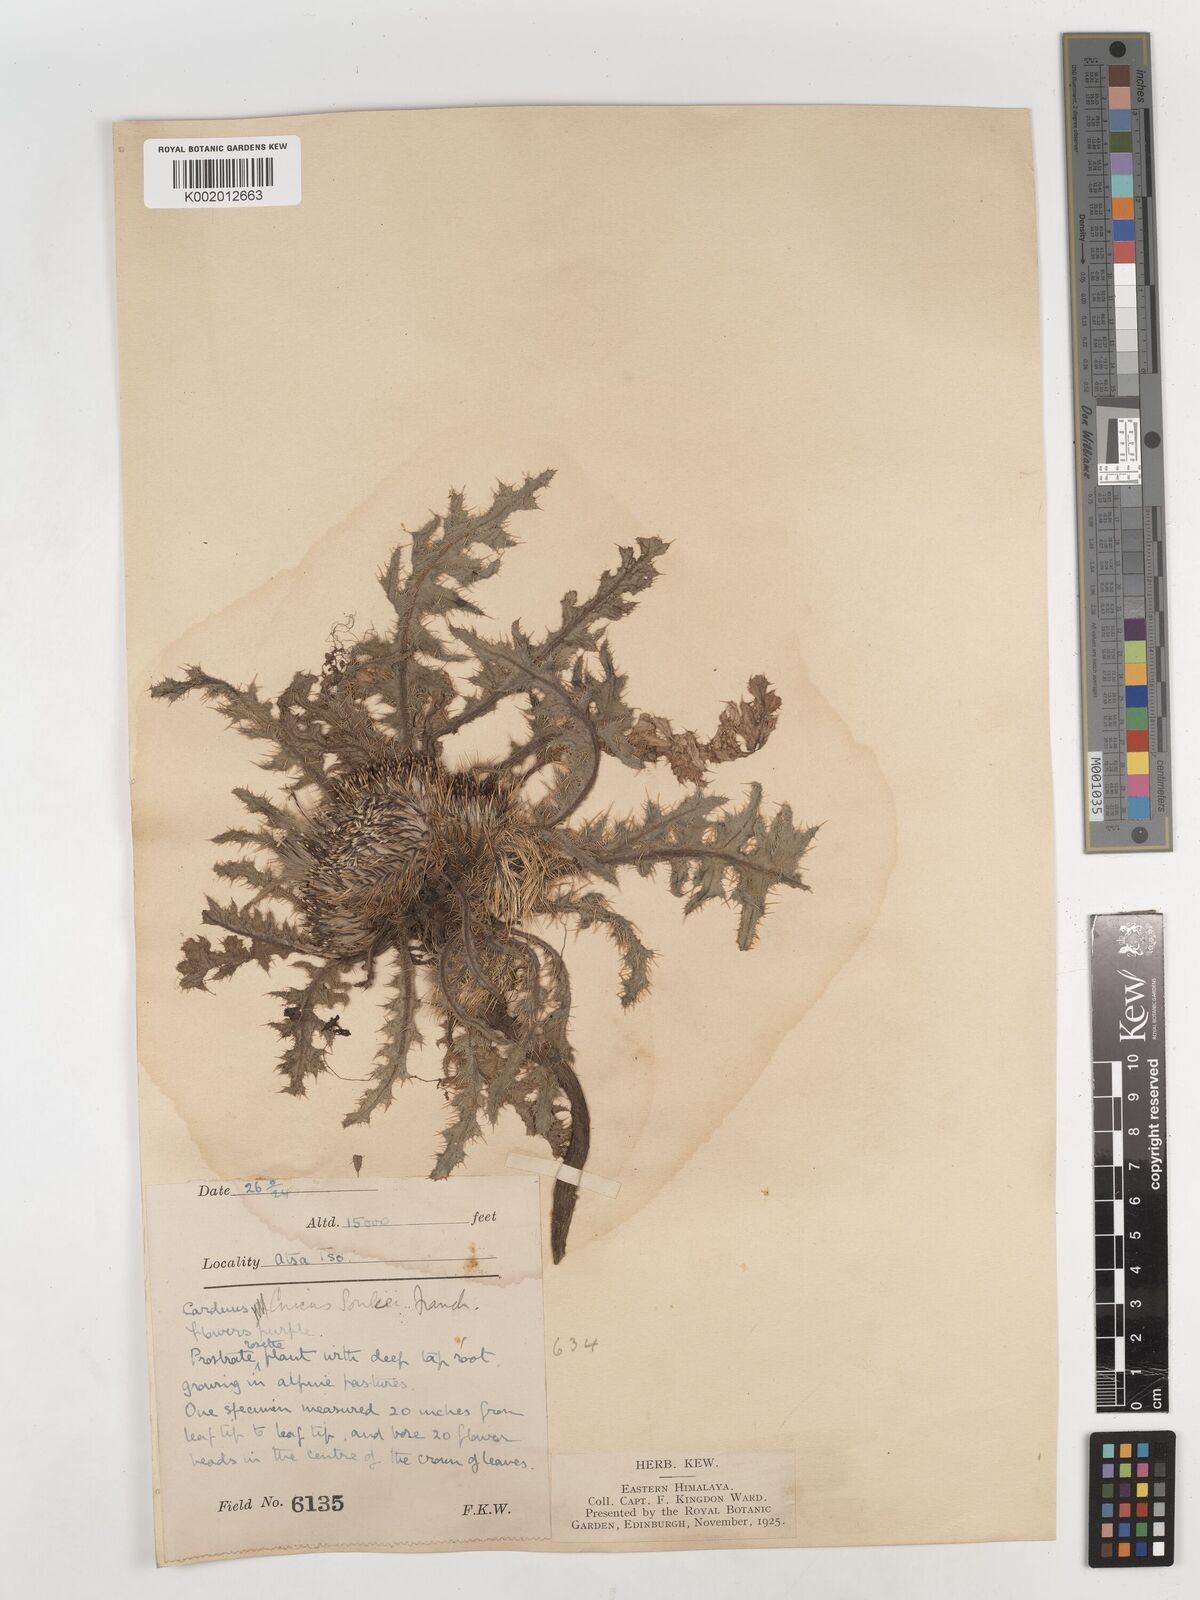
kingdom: Plantae
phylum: Tracheophyta
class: Magnoliopsida
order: Asterales
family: Asteraceae
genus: Cirsium
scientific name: Cirsium souliei
